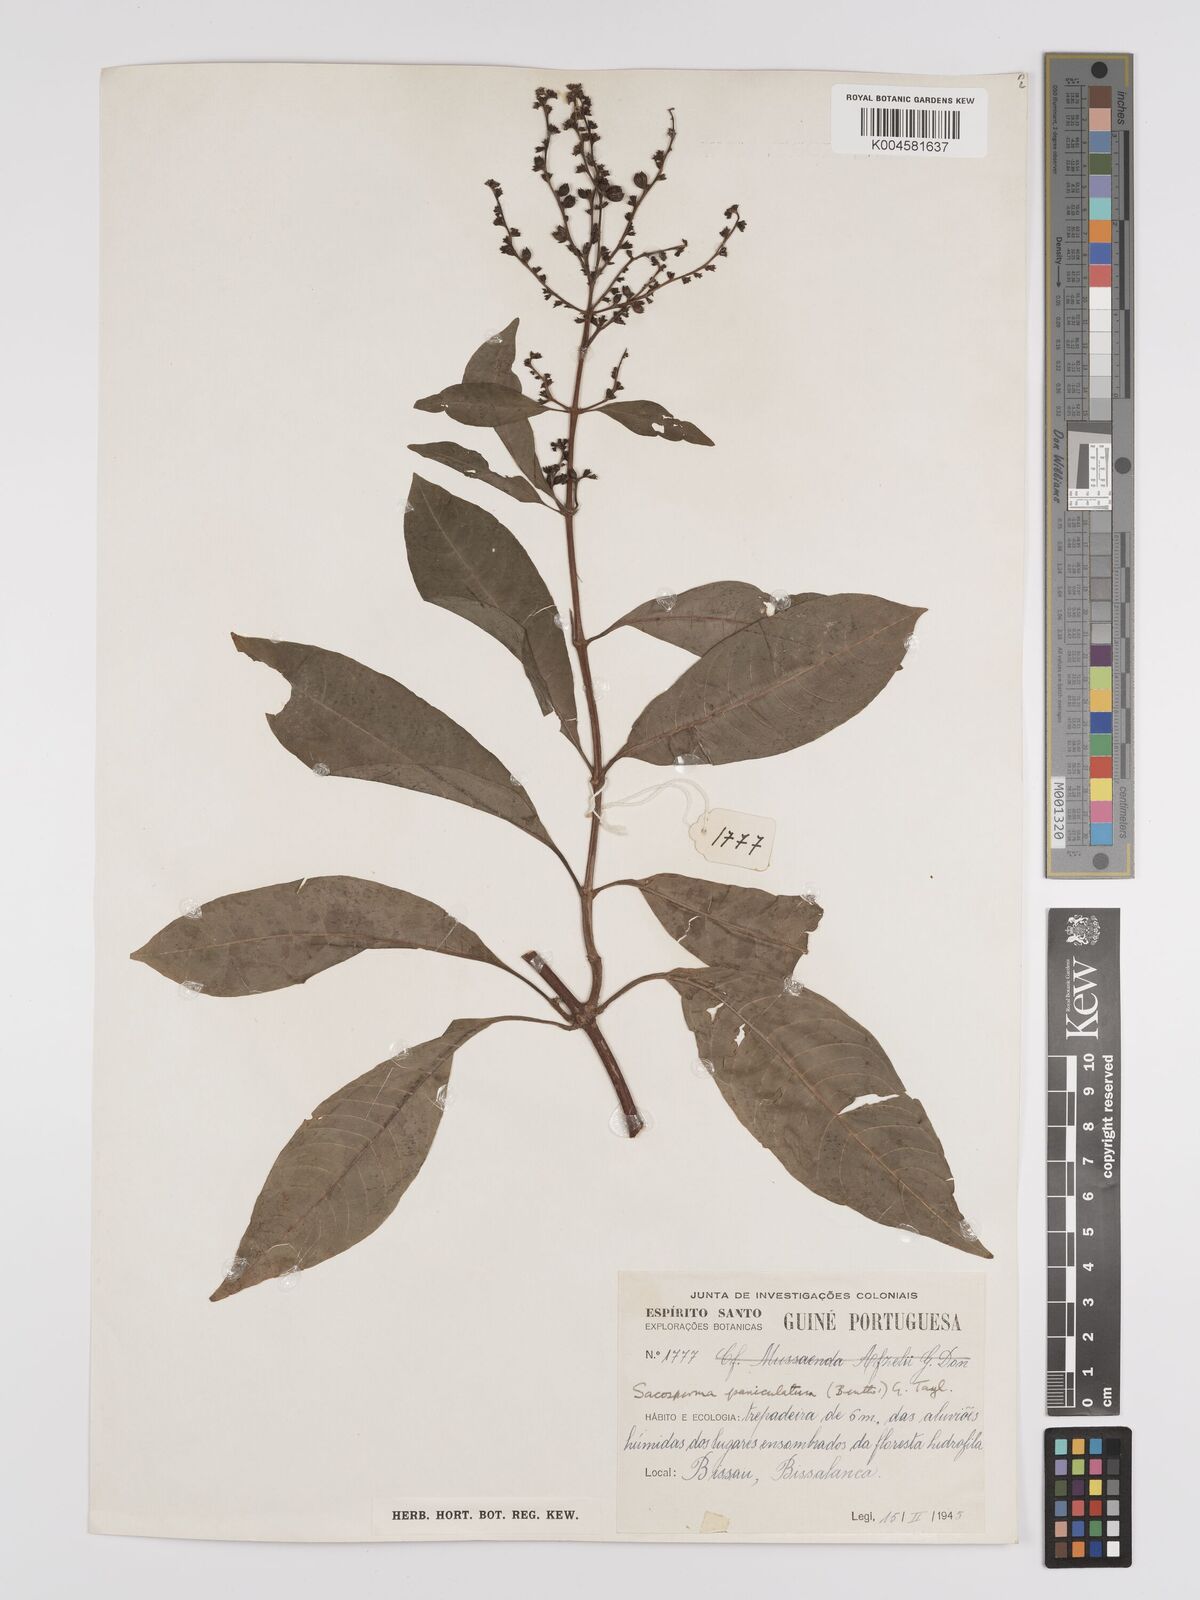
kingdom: Plantae
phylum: Tracheophyta
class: Magnoliopsida
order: Gentianales
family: Rubiaceae
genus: Sacosperma
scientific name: Sacosperma paniculatum
